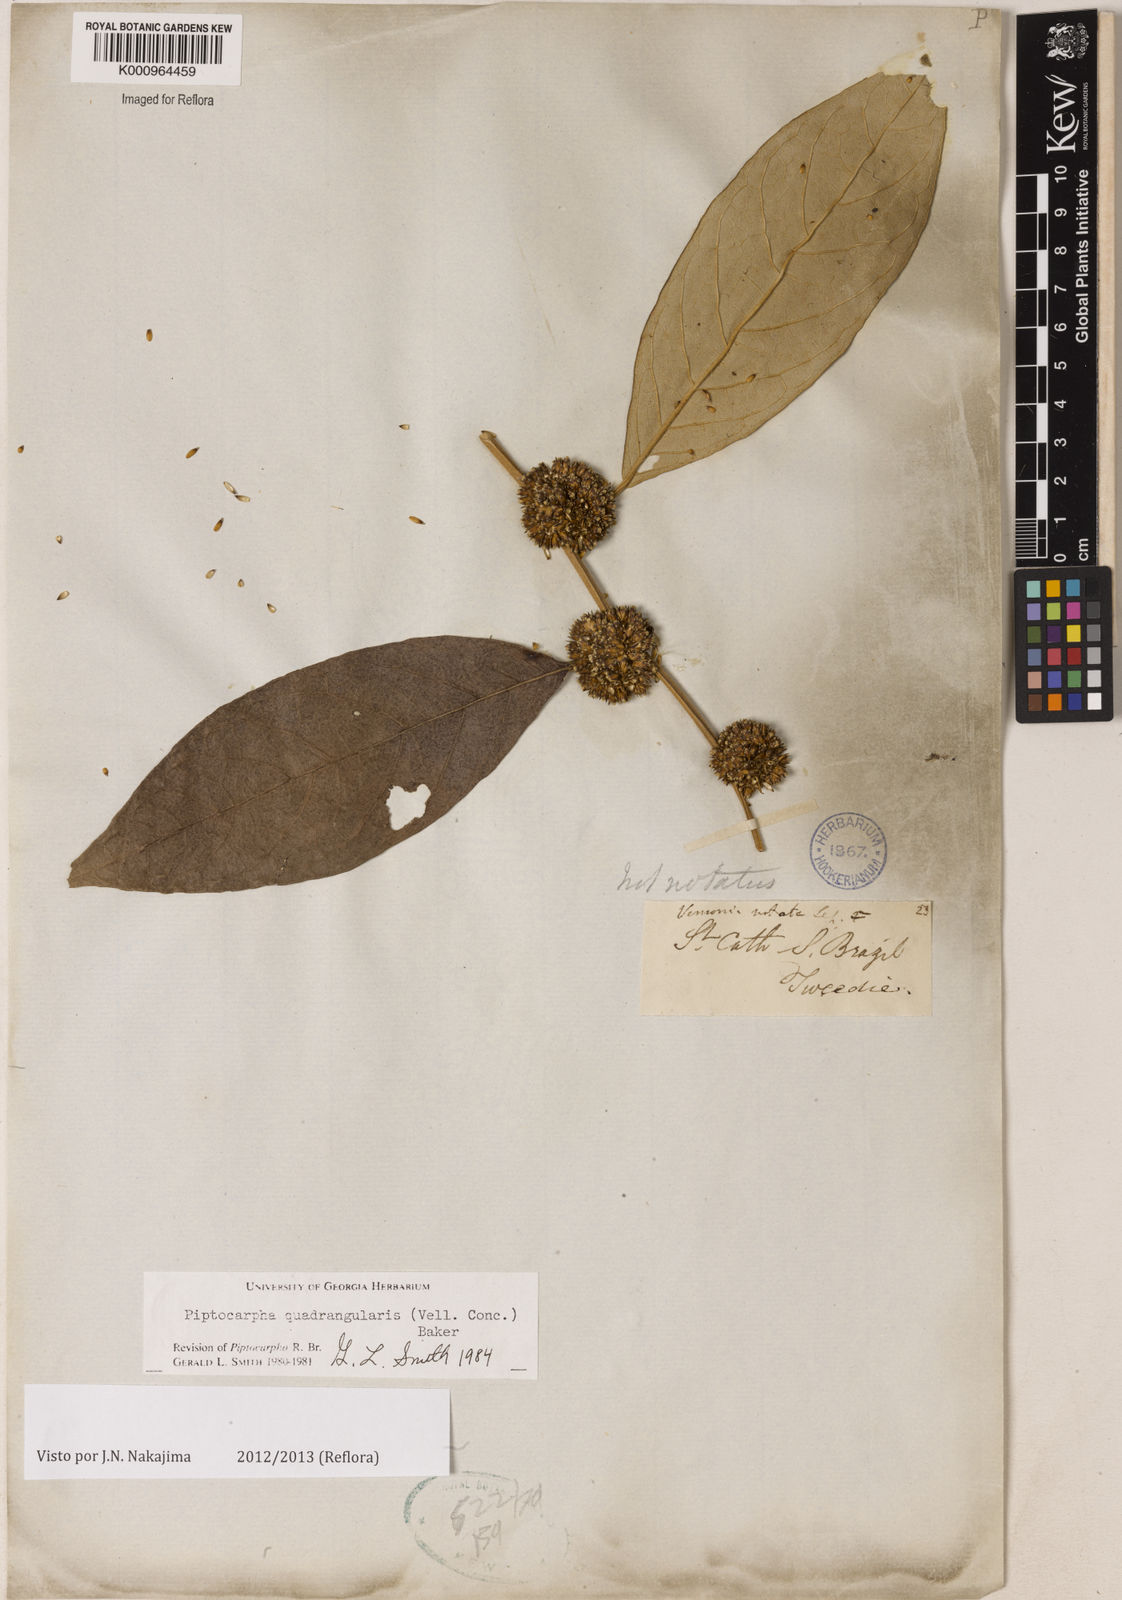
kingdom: Plantae
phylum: Tracheophyta
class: Magnoliopsida
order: Asterales
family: Asteraceae
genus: Piptocarpha
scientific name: Piptocarpha quadrangularis
